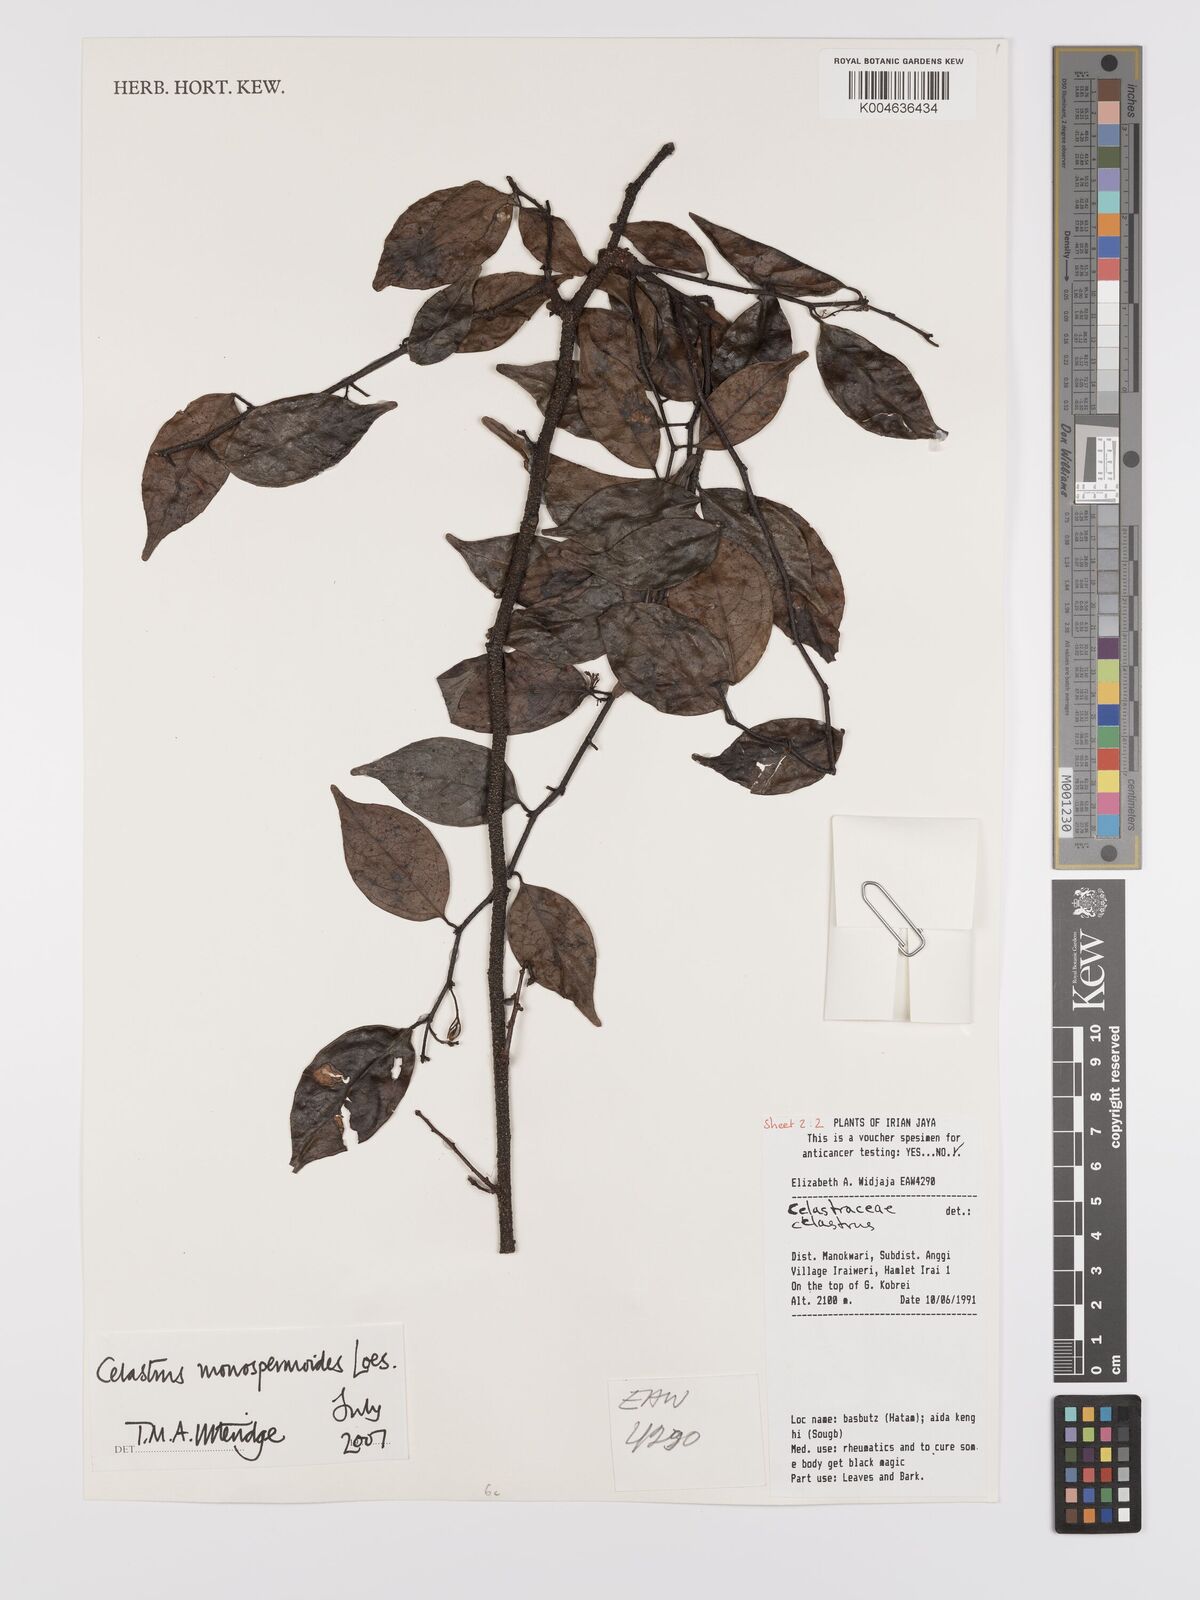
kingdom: Plantae
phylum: Tracheophyta
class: Magnoliopsida
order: Celastrales
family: Celastraceae
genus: Celastrus
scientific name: Celastrus monospermoides
